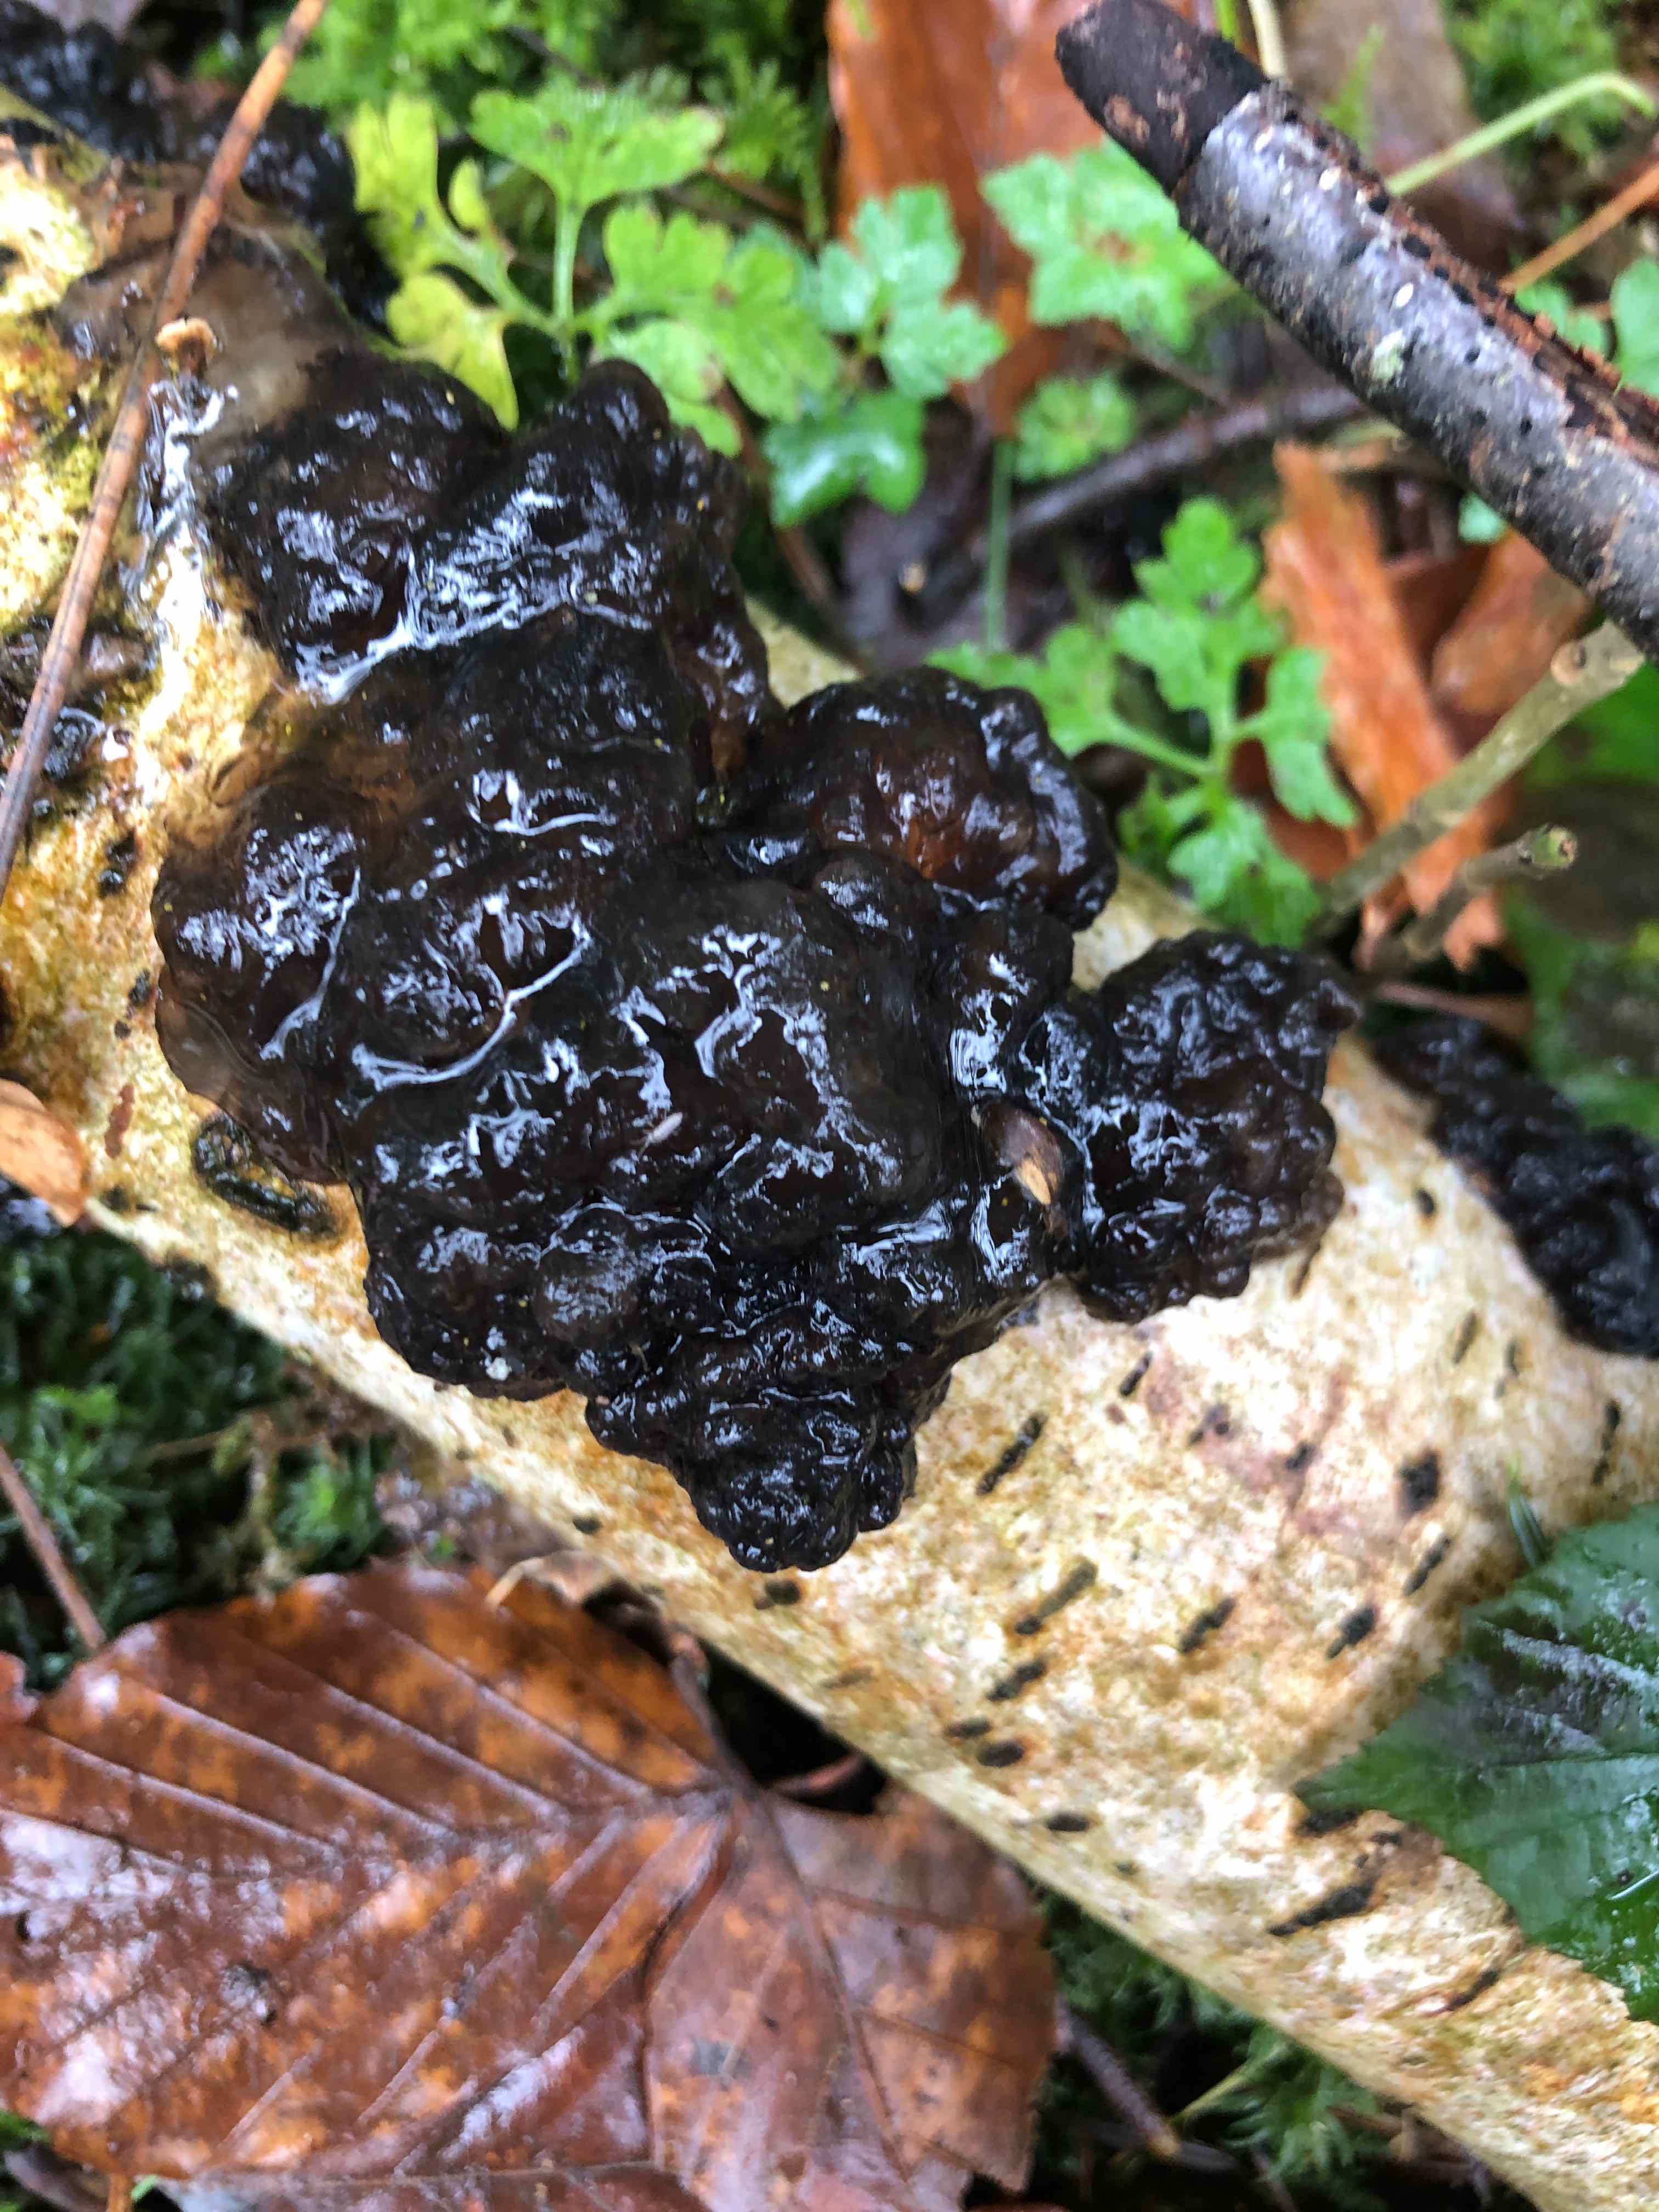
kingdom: Fungi
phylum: Basidiomycota
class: Agaricomycetes
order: Auriculariales
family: Auriculariaceae
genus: Exidia
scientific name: Exidia nigricans
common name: almindelig bævretop
